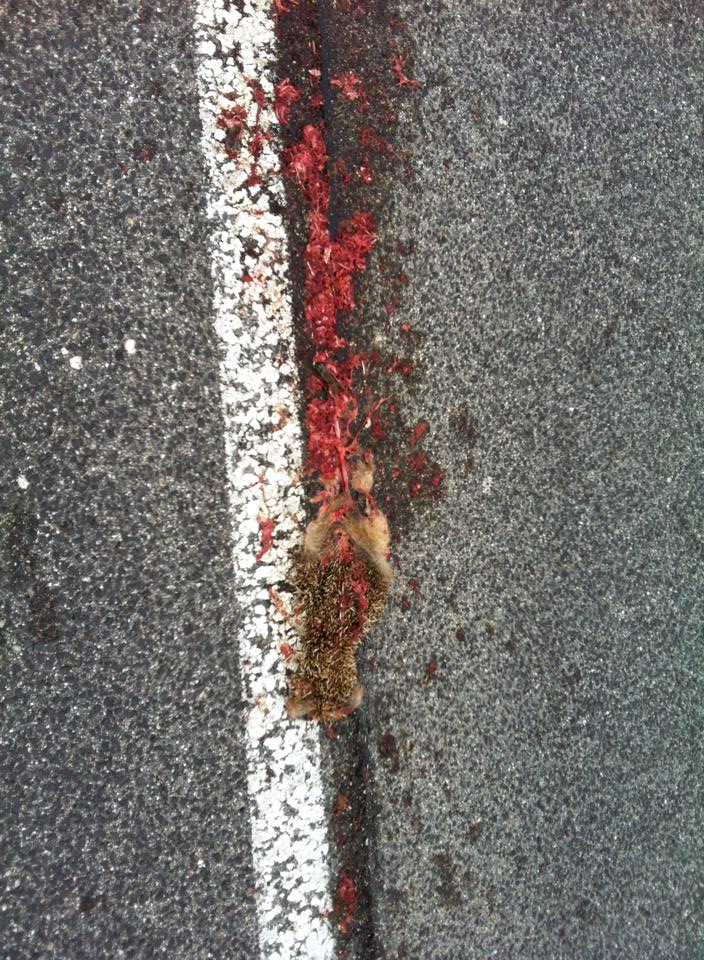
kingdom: Animalia
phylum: Chordata
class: Mammalia
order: Erinaceomorpha
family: Erinaceidae
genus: Erinaceus
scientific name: Erinaceus
